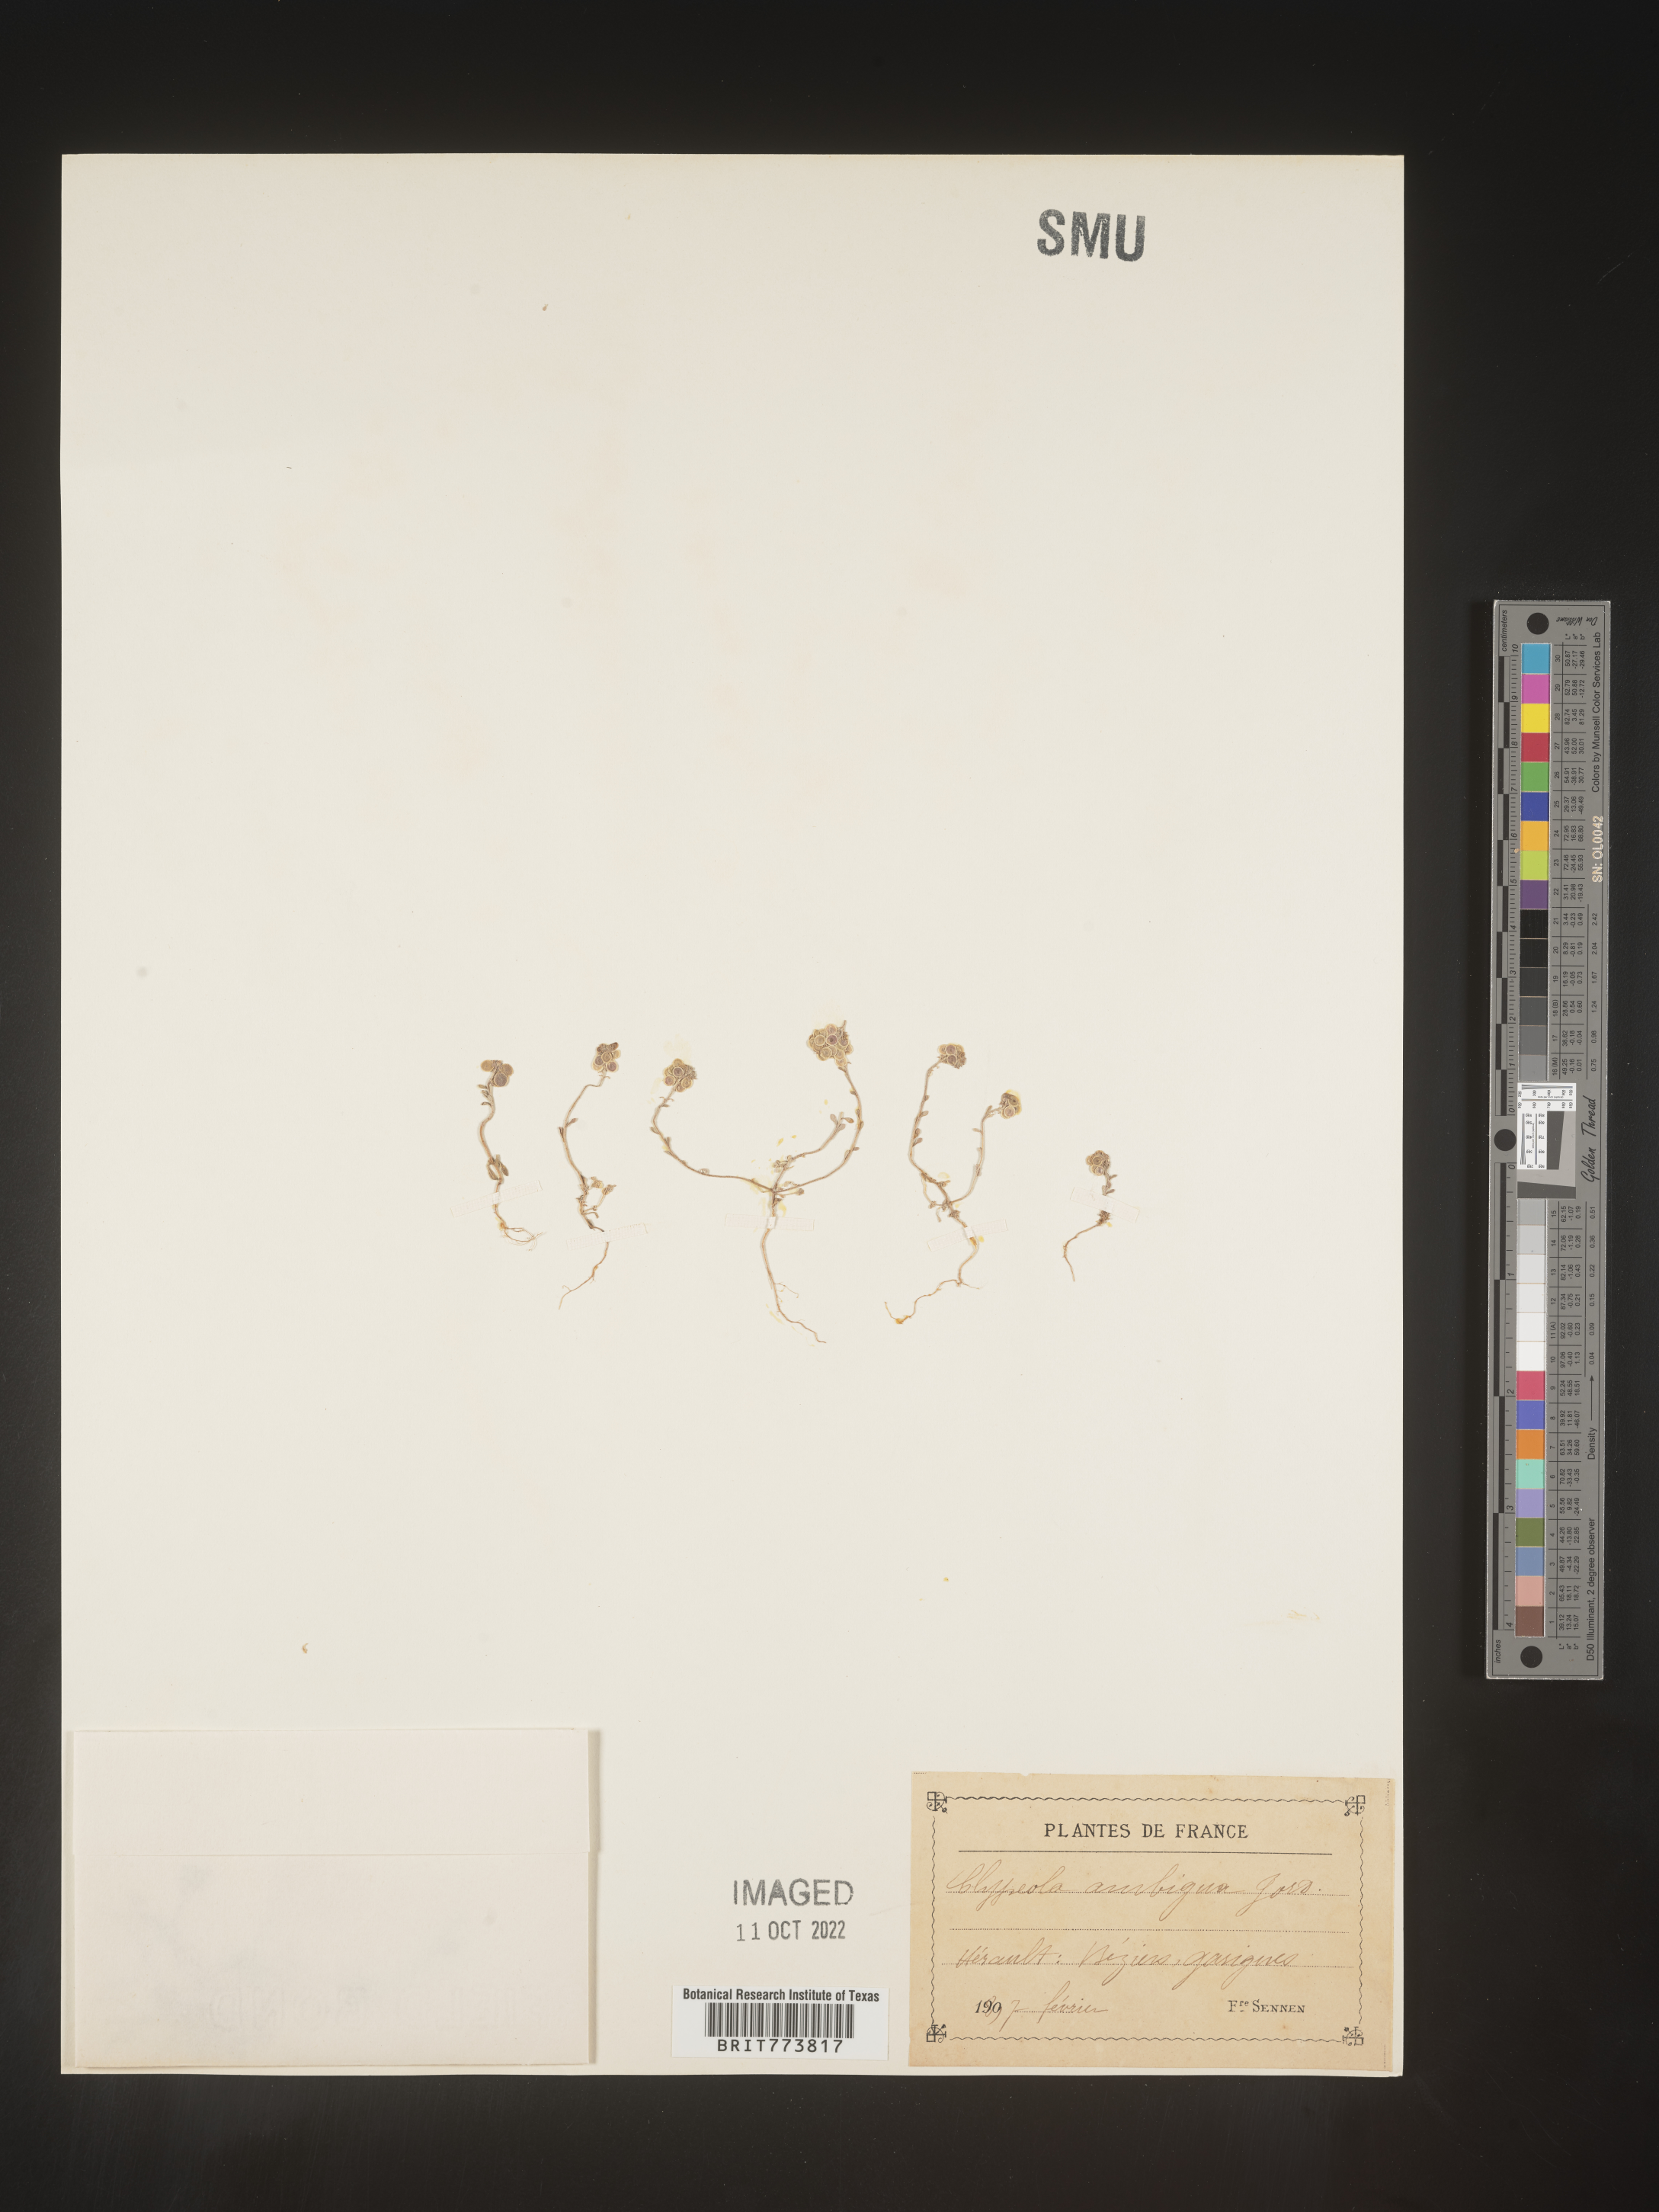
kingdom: Plantae
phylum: Tracheophyta
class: Magnoliopsida
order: Brassicales
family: Brassicaceae
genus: Clypeola
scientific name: Clypeola
